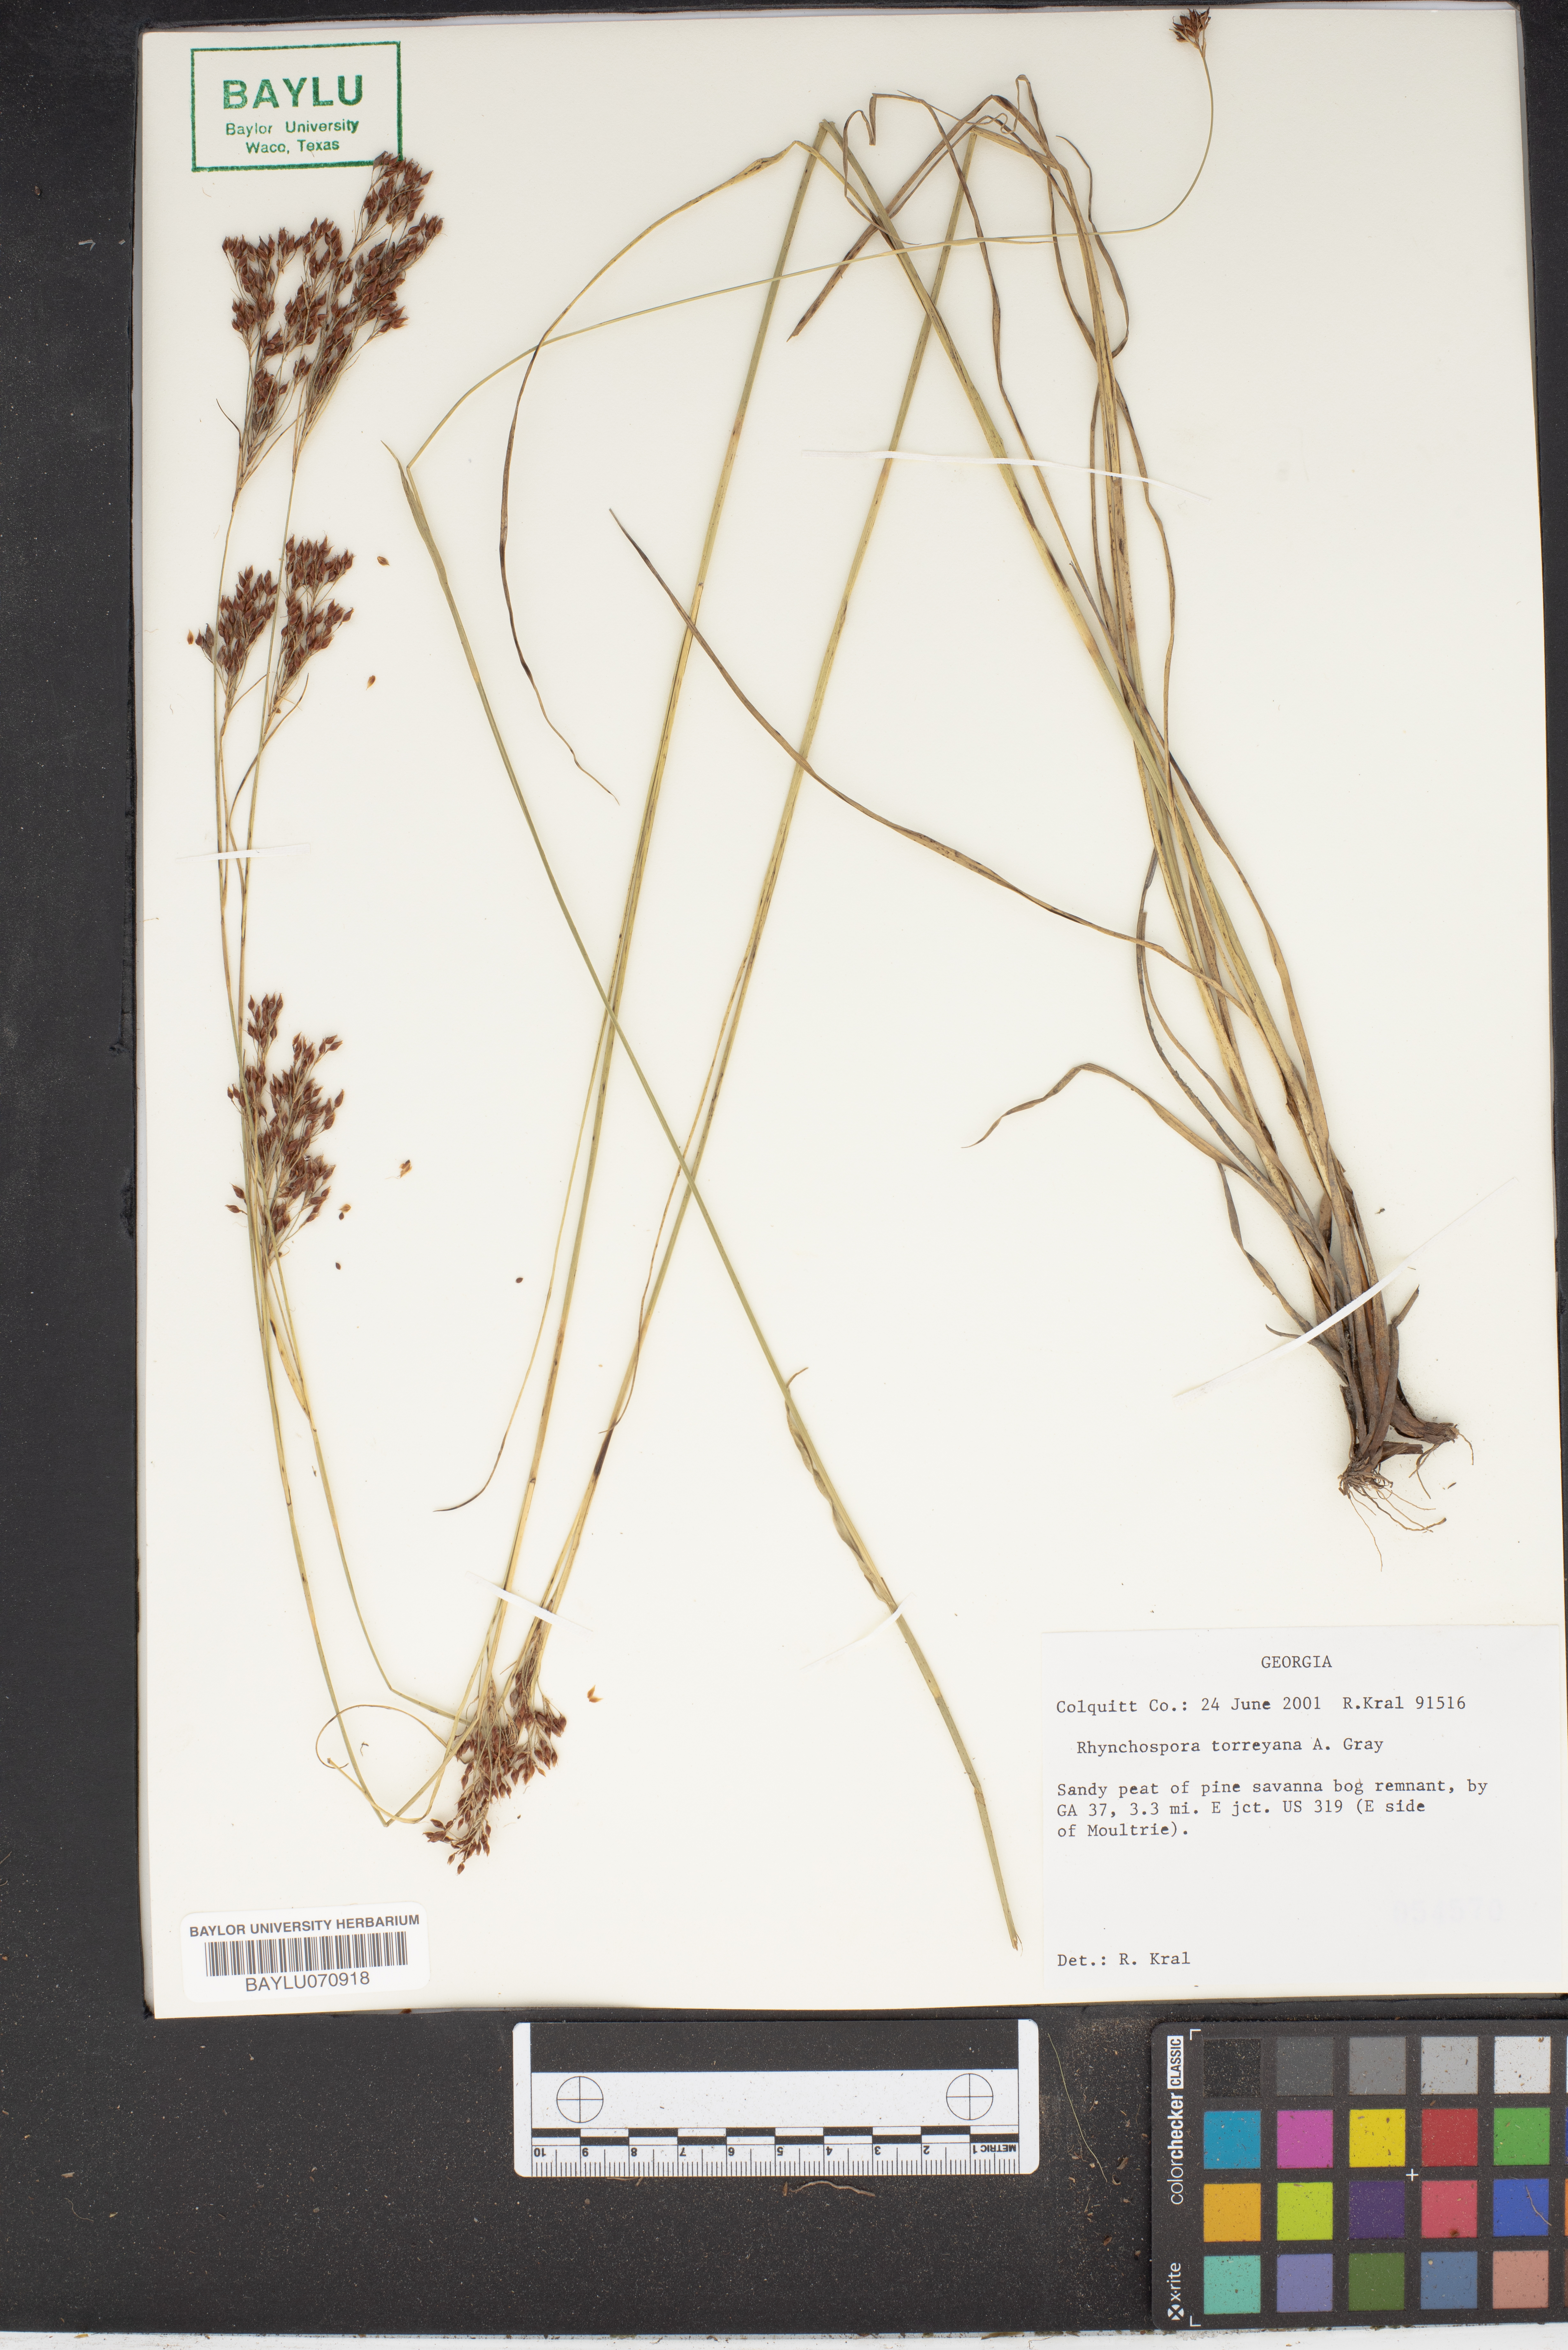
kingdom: Plantae
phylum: Tracheophyta
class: Liliopsida
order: Poales
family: Cyperaceae
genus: Rhynchospora
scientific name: Rhynchospora torreyana
